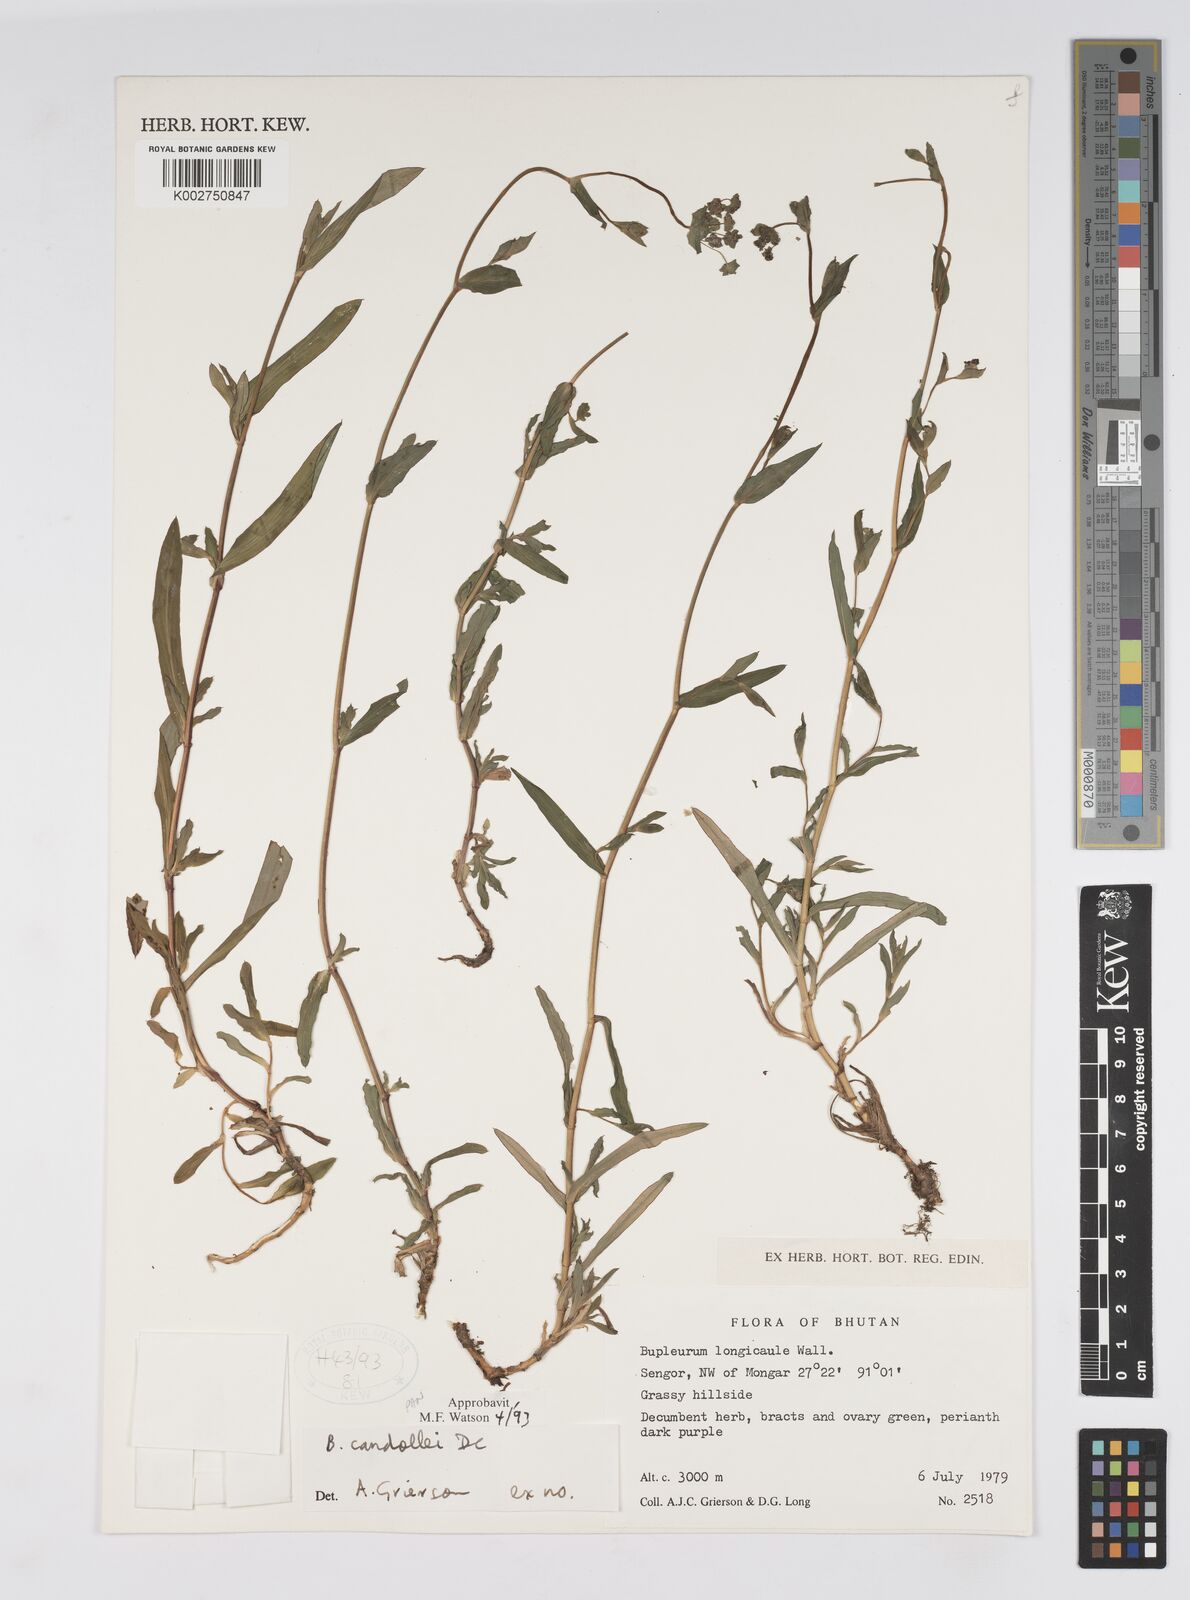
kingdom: Plantae
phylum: Tracheophyta
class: Magnoliopsida
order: Apiales
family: Apiaceae
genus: Bupleurum
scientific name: Bupleurum candollei
